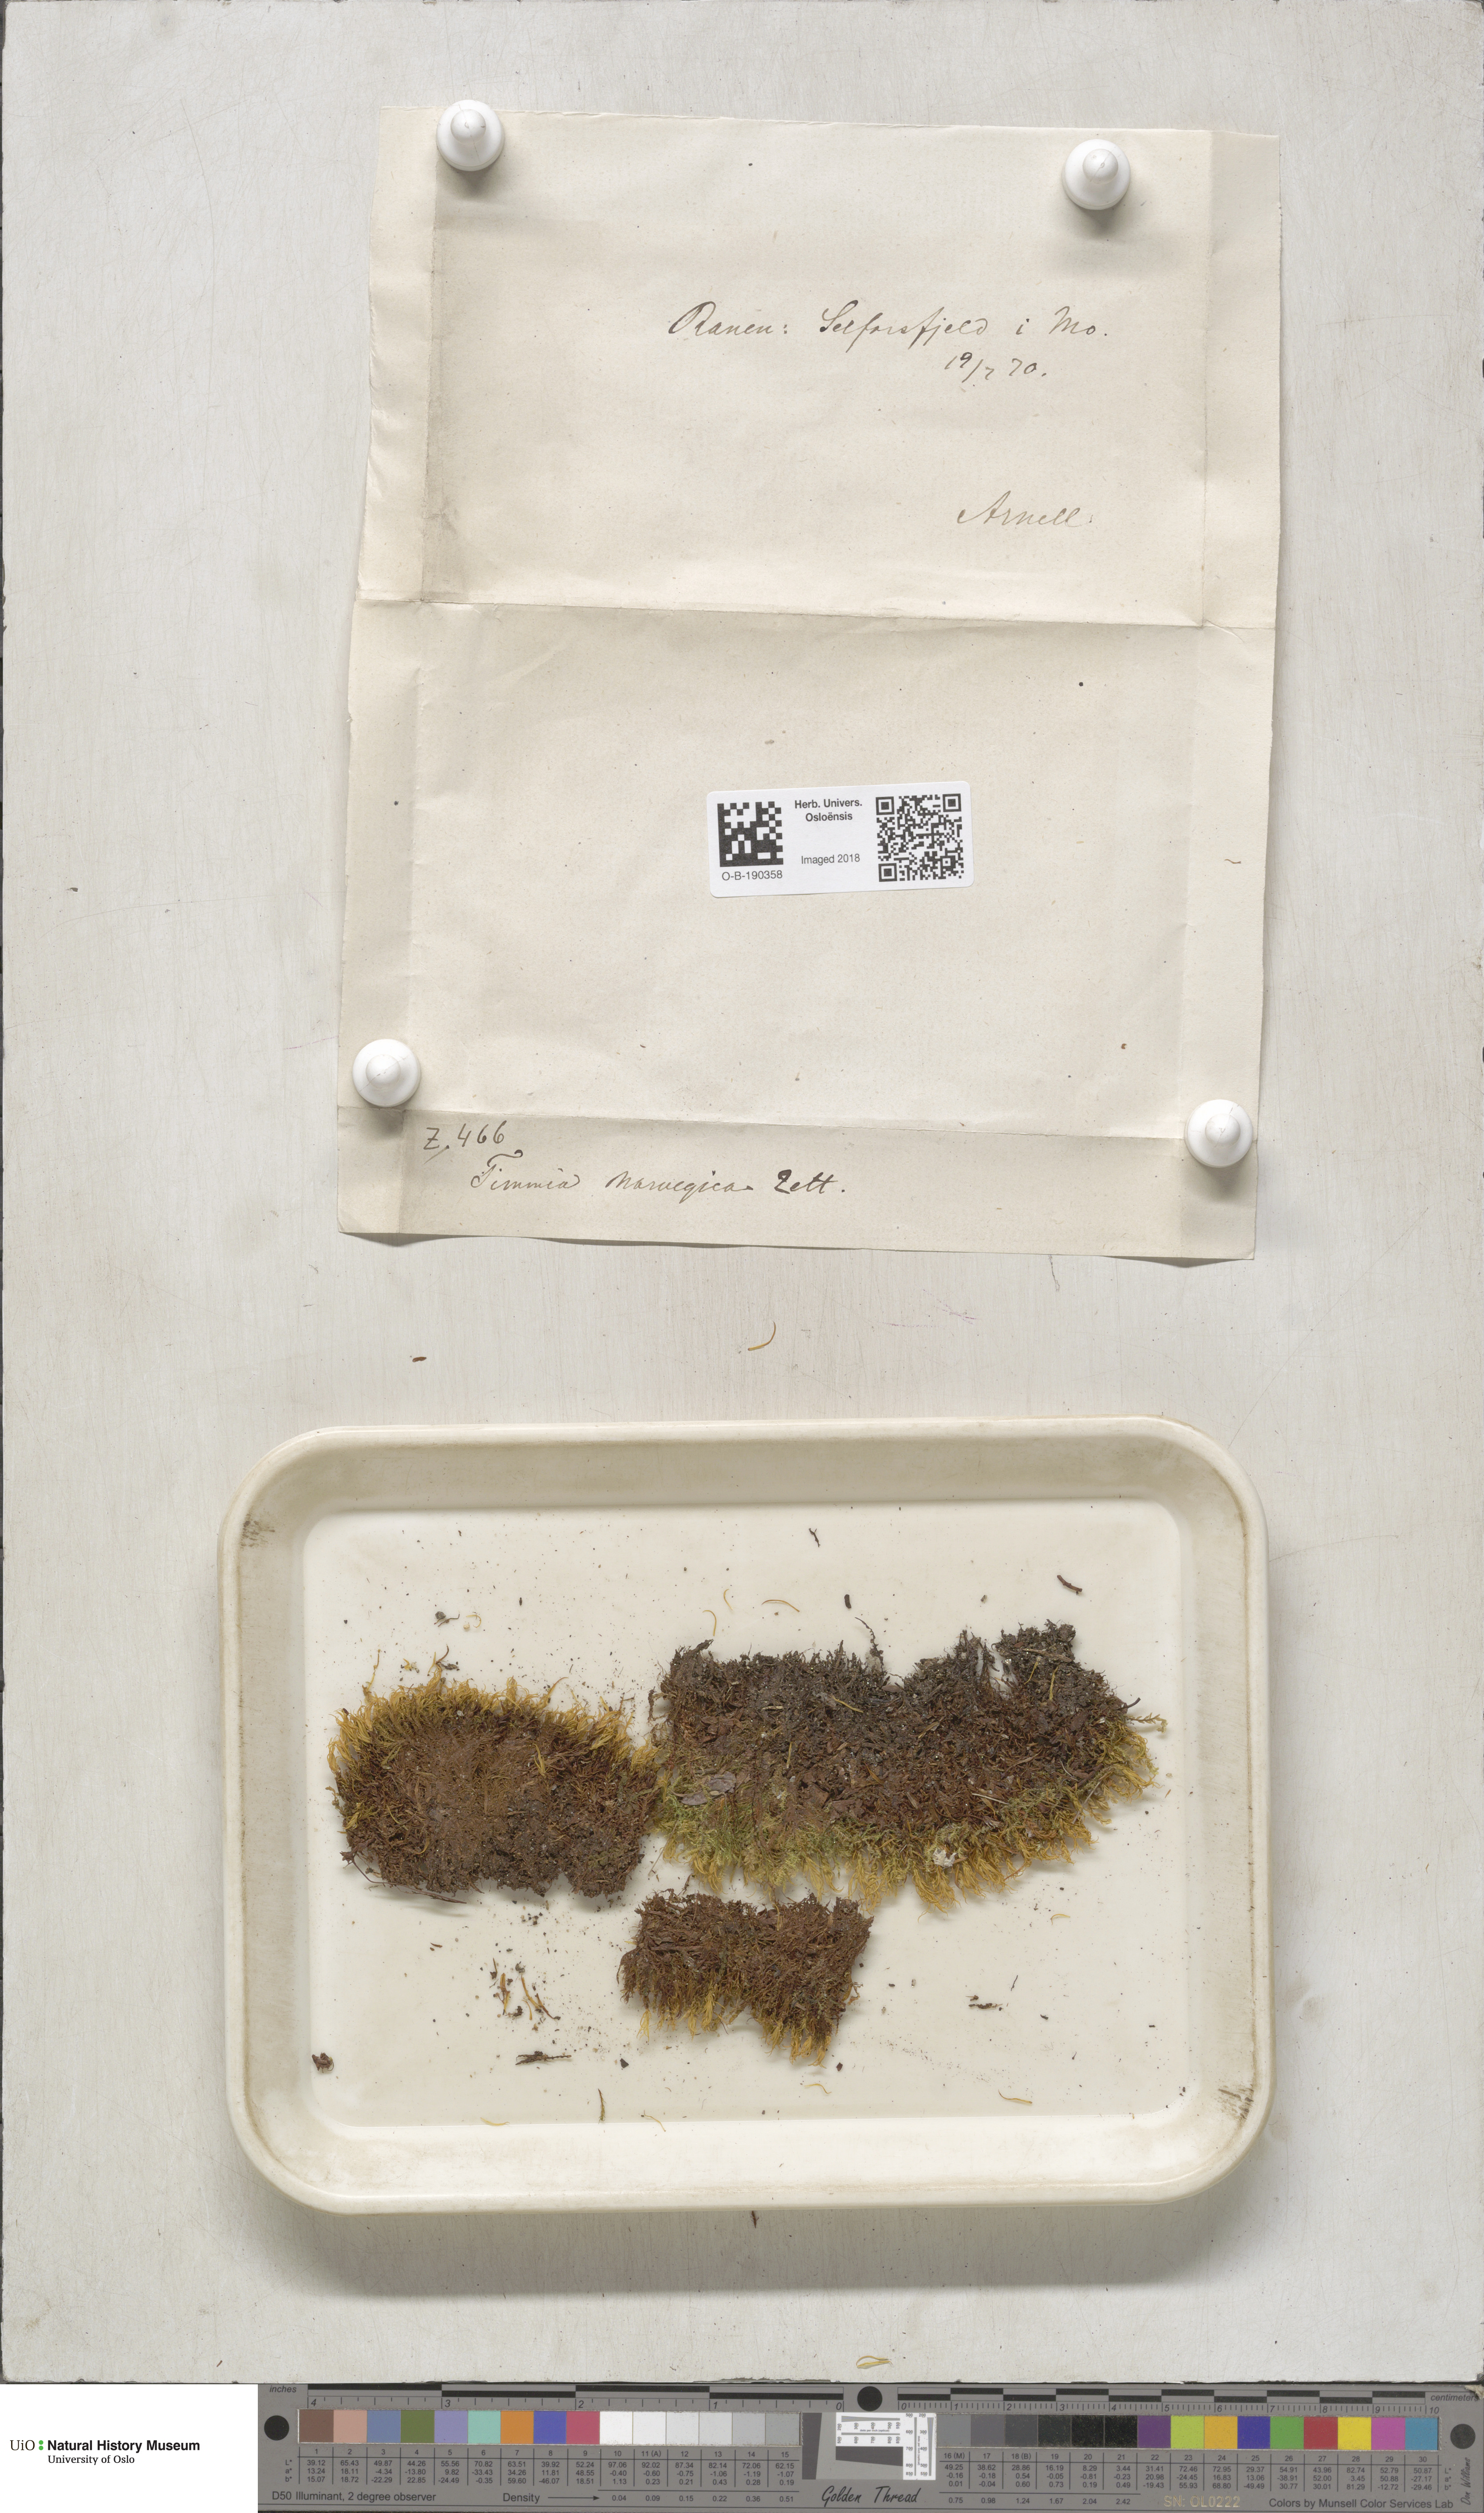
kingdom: Plantae
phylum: Bryophyta
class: Bryopsida
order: Timmiales
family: Timmiaceae
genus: Timmia
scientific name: Timmia norvegica
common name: Norway timmia
